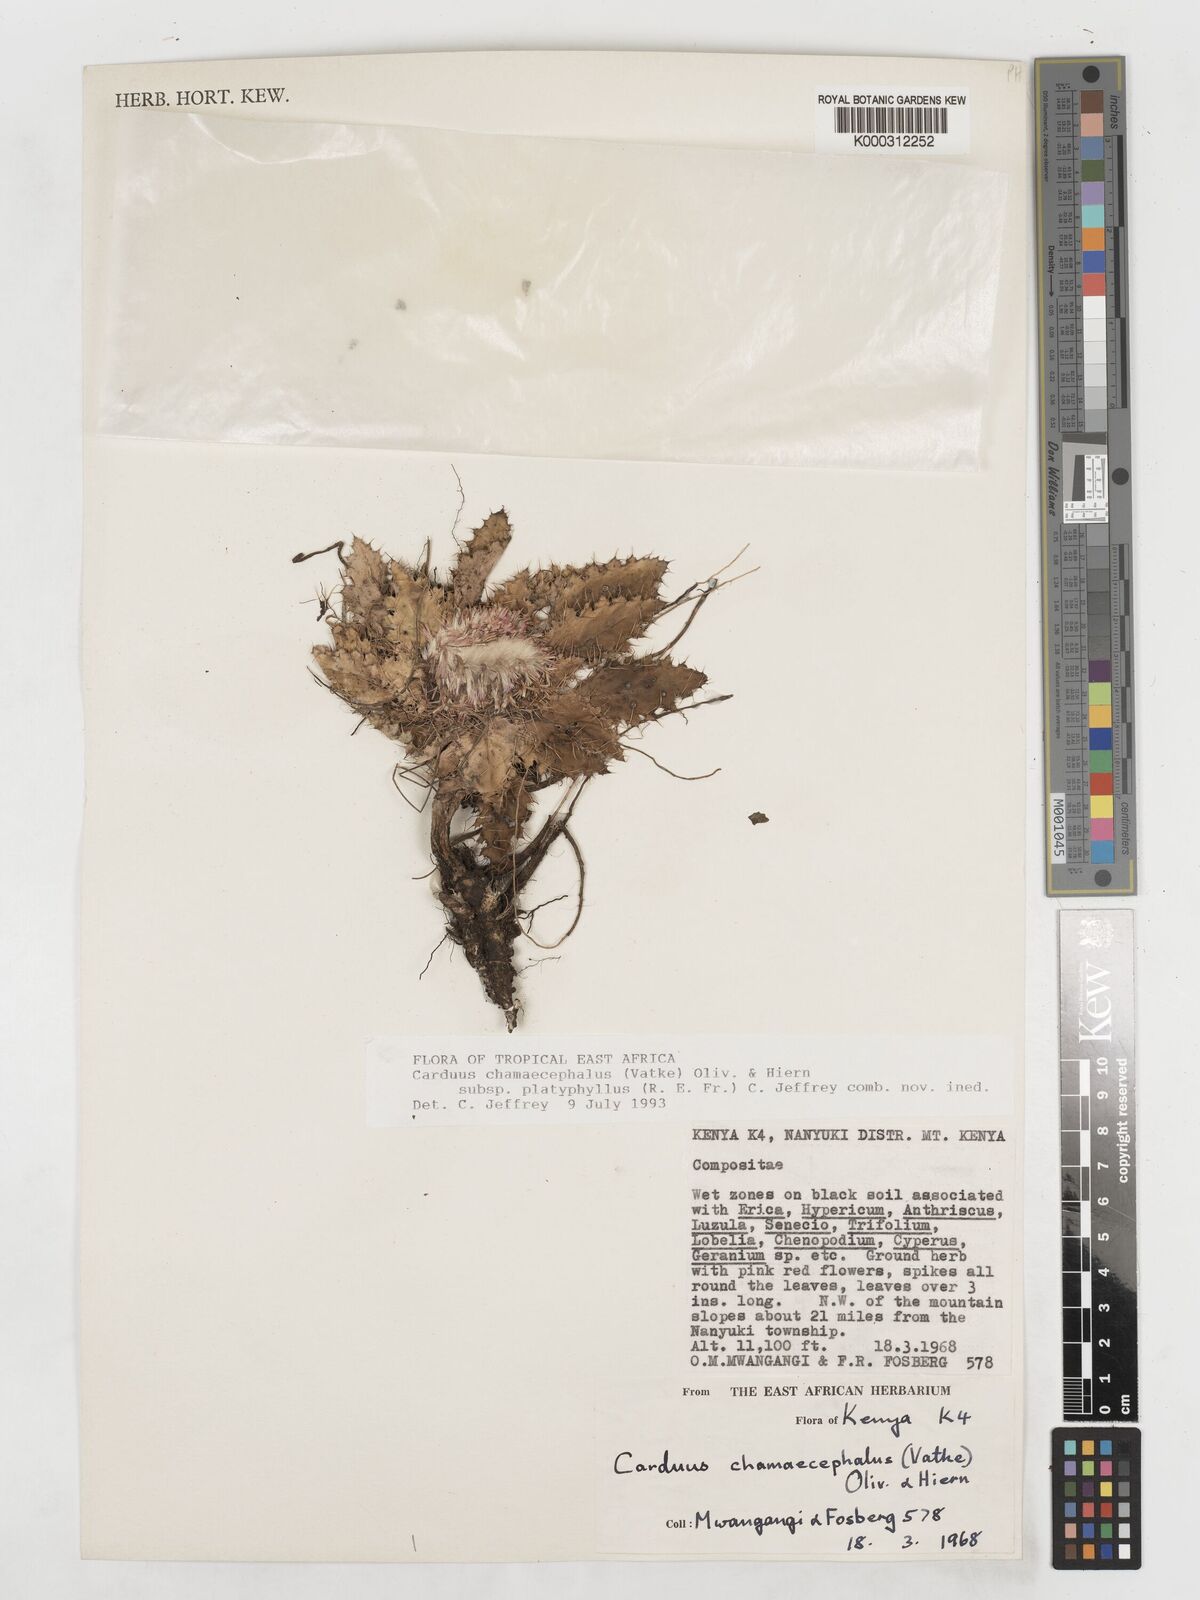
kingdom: Plantae
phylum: Tracheophyta
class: Magnoliopsida
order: Asterales
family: Asteraceae
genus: Carduus
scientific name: Carduus schimperi
